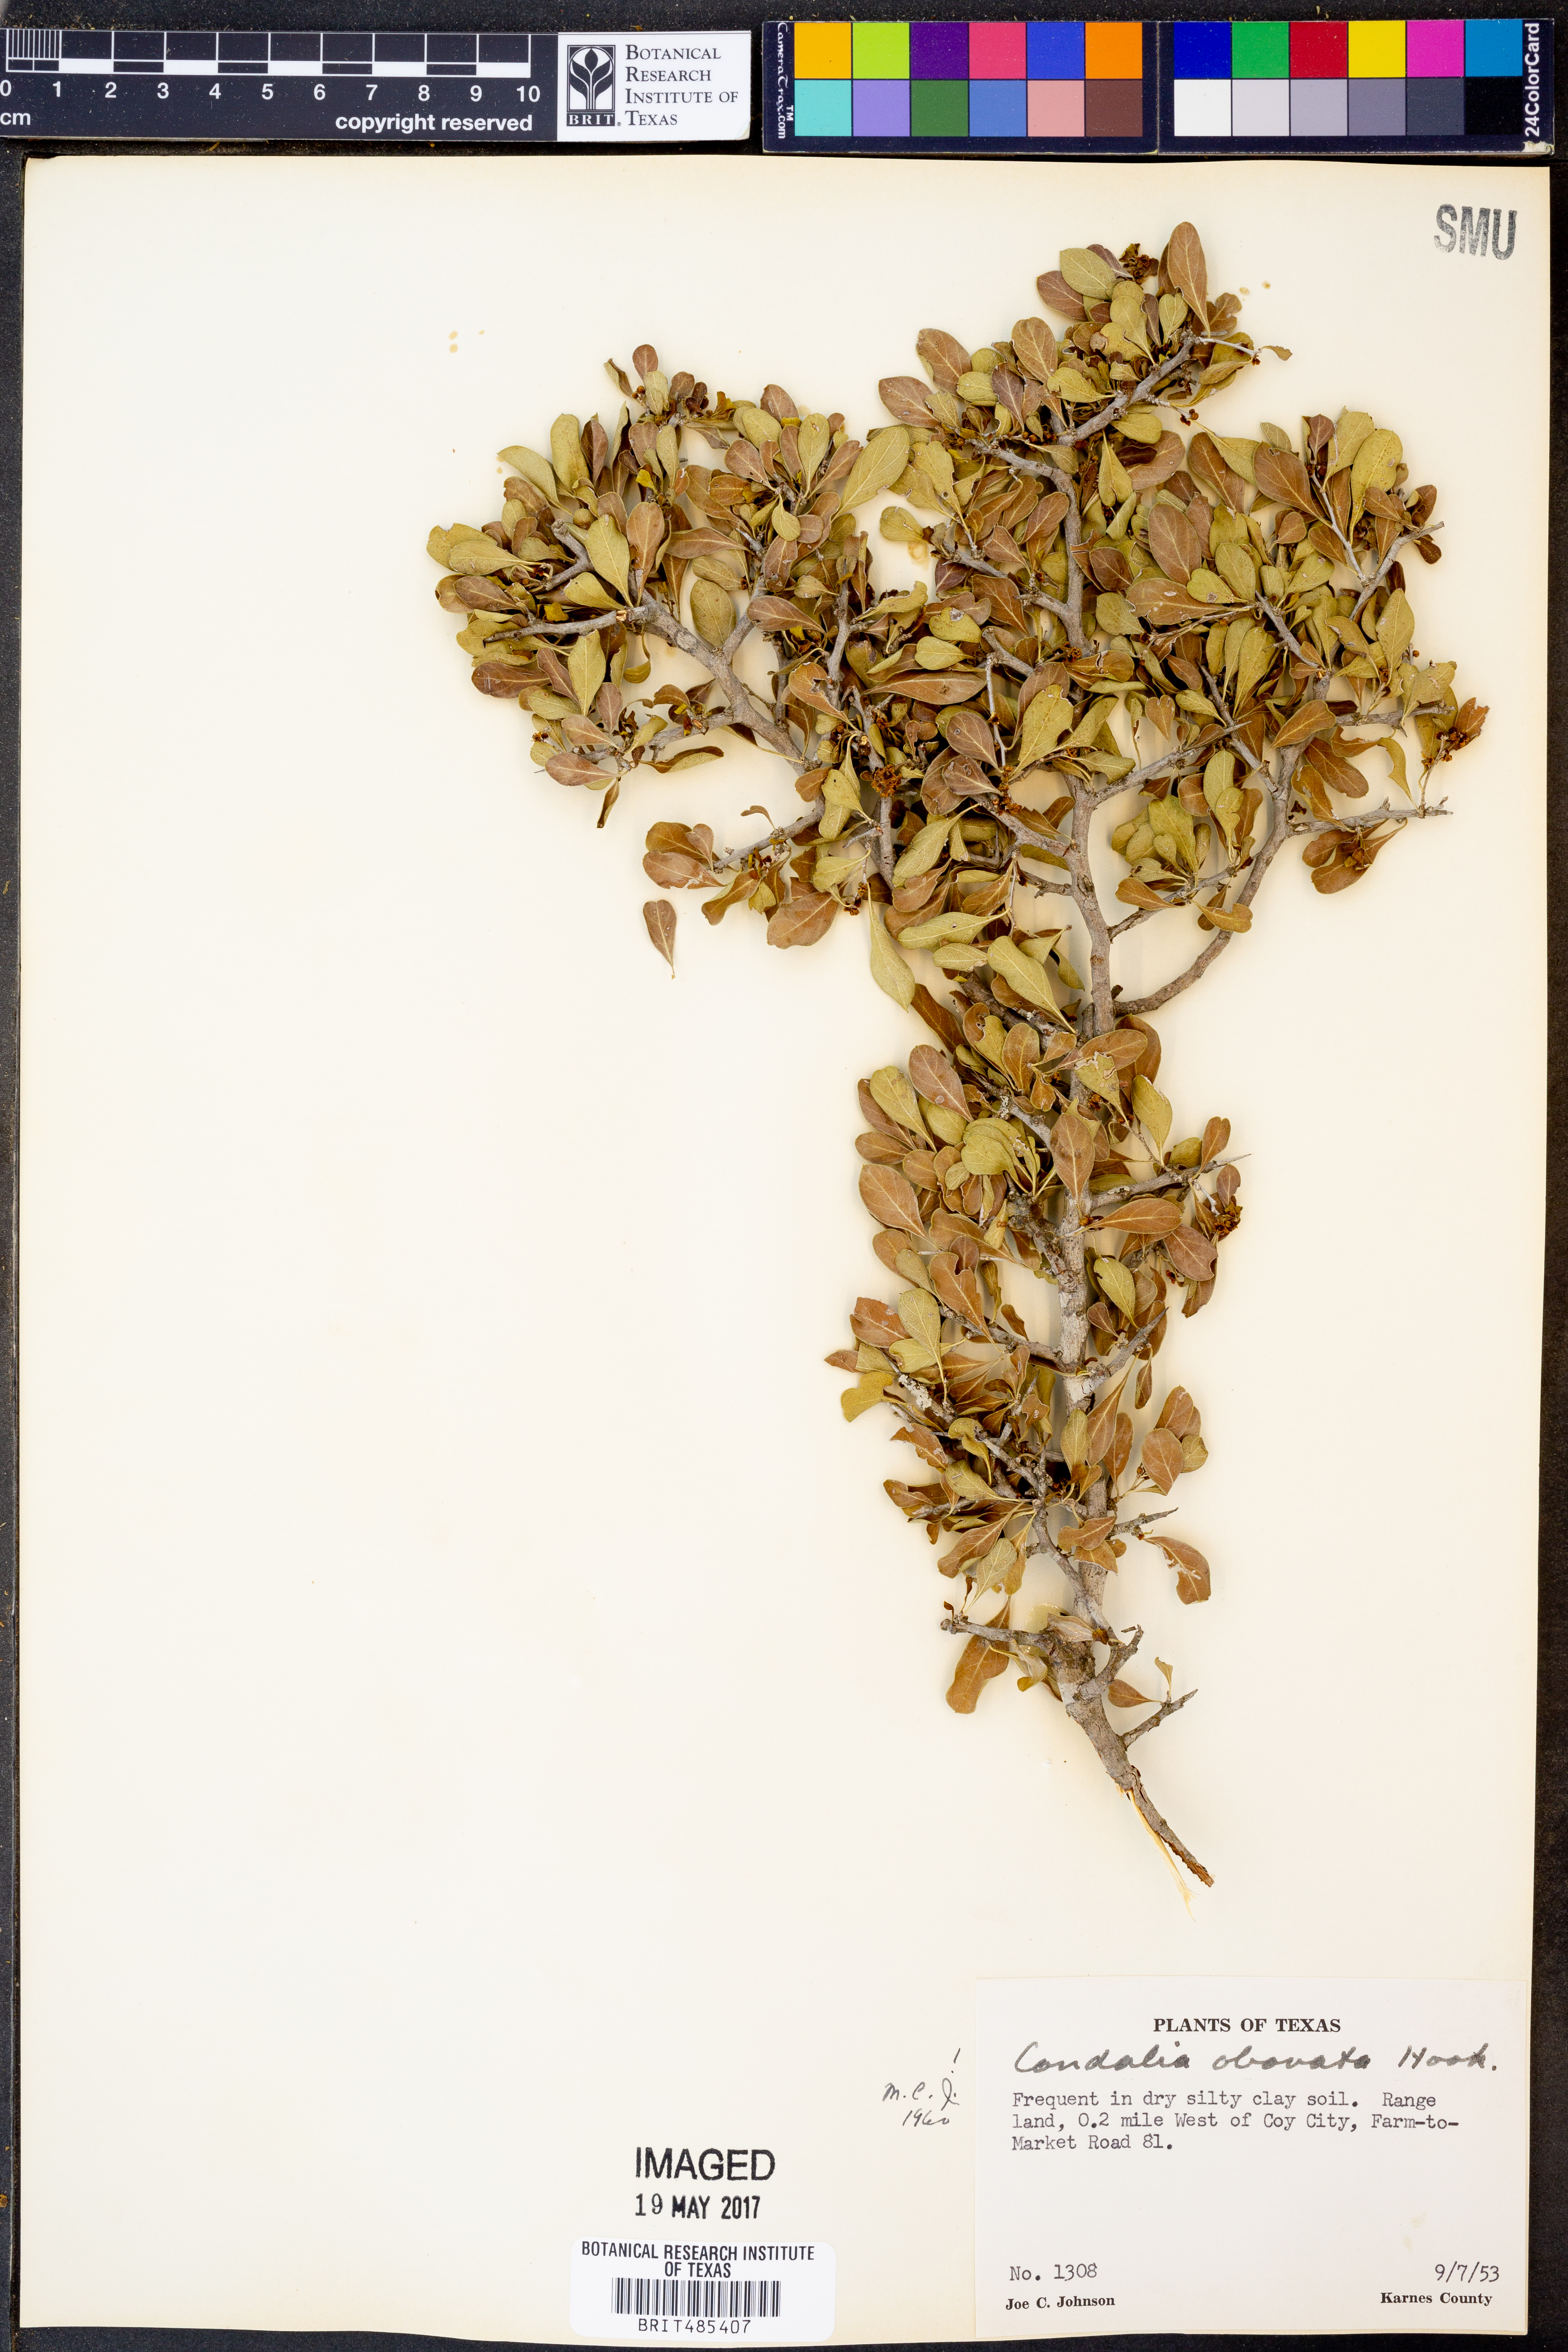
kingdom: Plantae
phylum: Tracheophyta
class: Magnoliopsida
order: Rosales
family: Rhamnaceae
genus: Condalia
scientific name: Condalia hookeri
